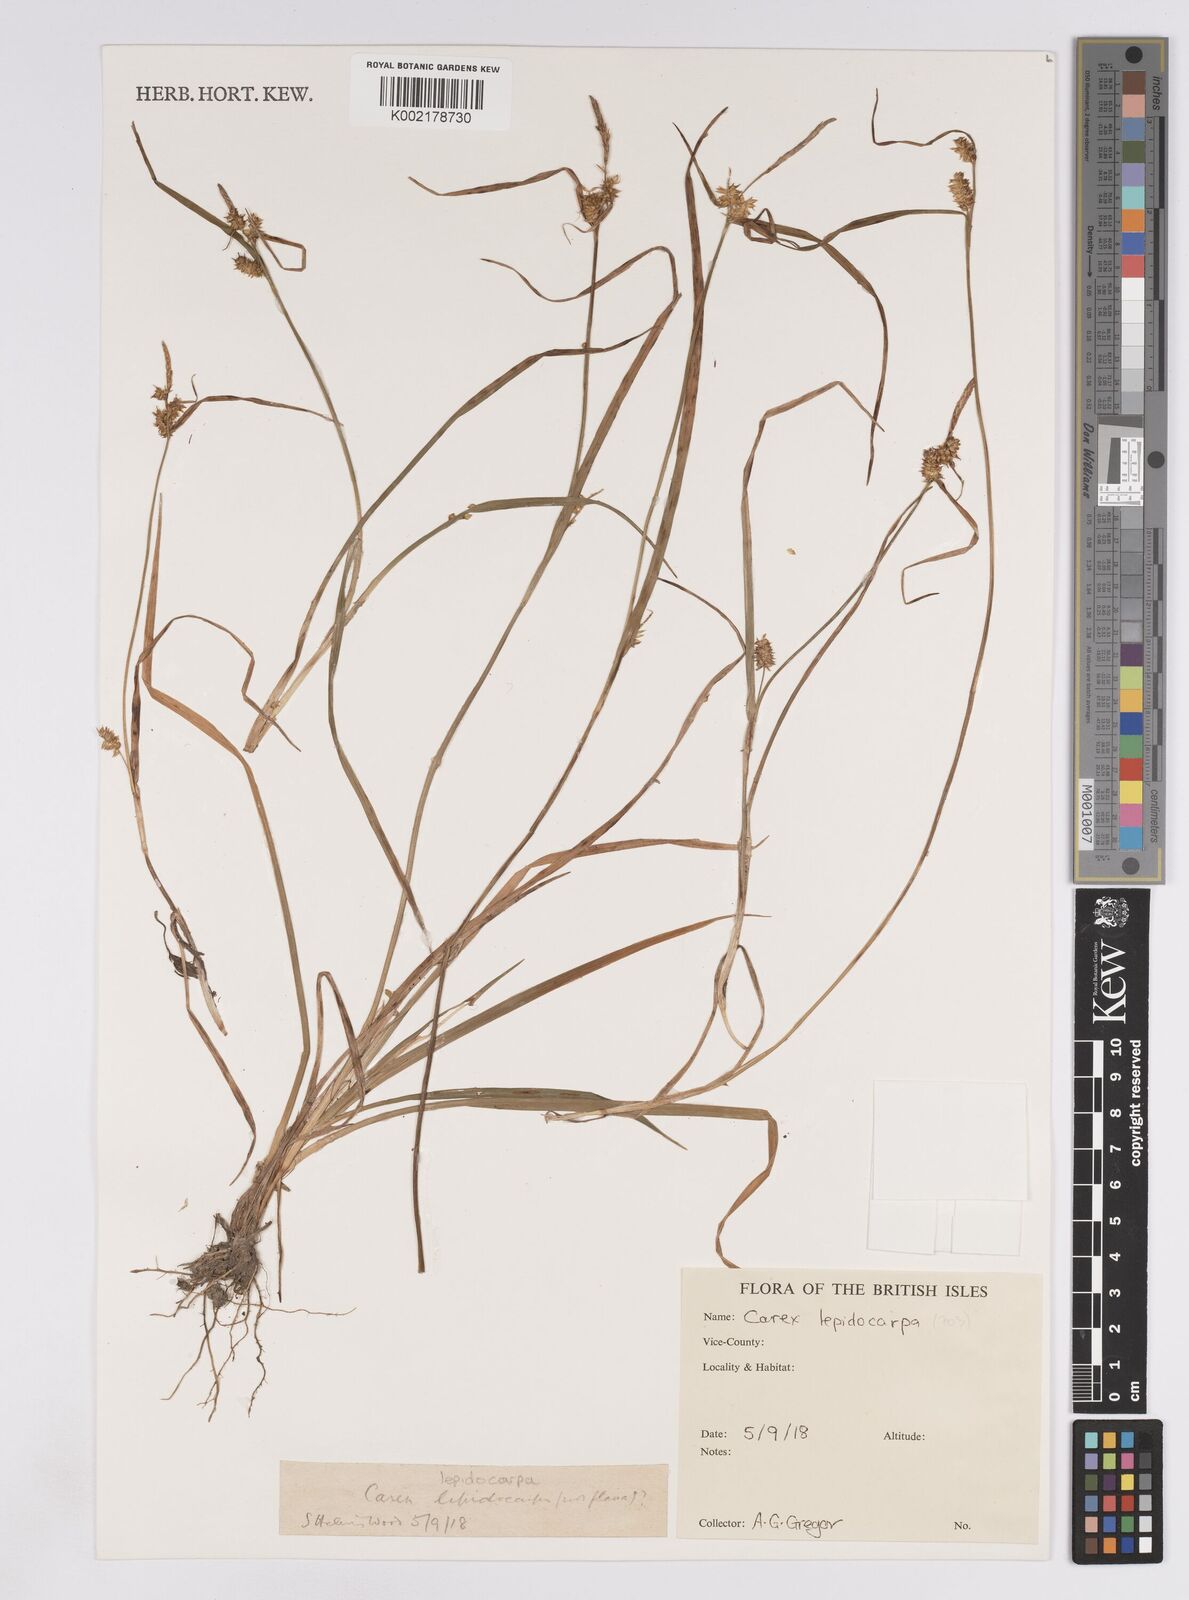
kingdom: Plantae
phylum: Tracheophyta
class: Liliopsida
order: Poales
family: Cyperaceae
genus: Carex
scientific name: Carex lepidocarpa
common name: Long-stalked yellow-sedge
